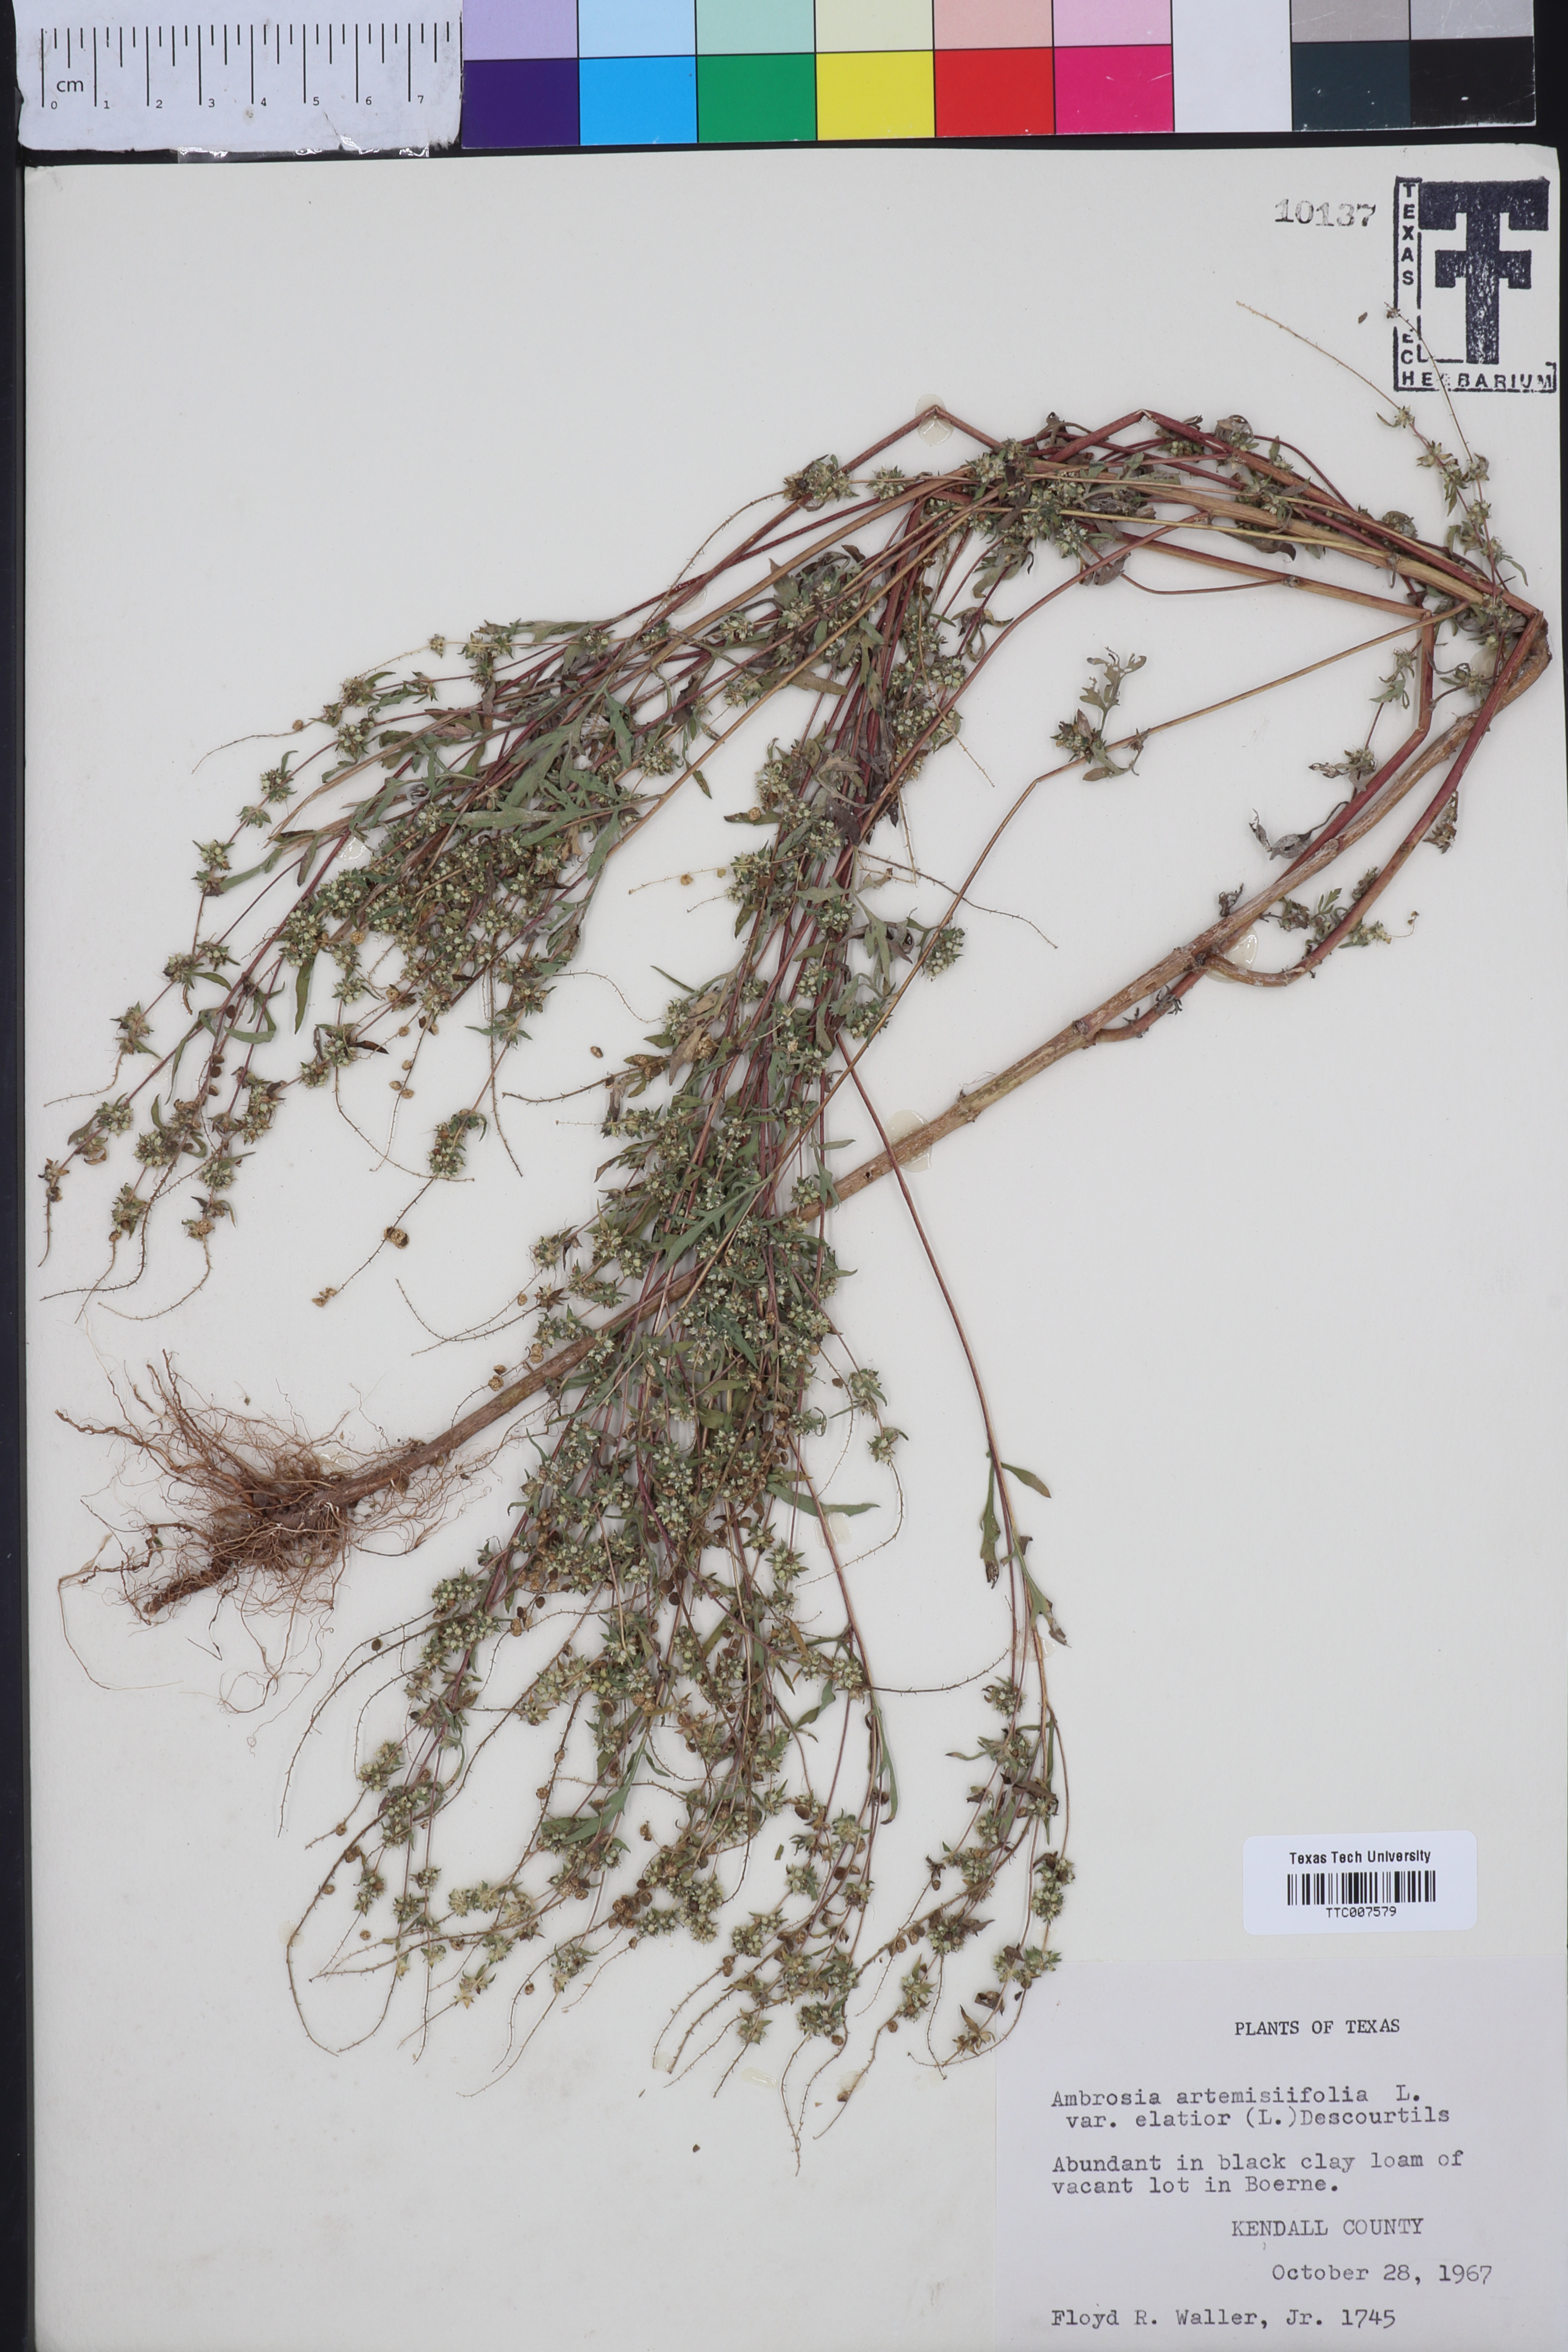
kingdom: Plantae
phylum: Tracheophyta
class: Magnoliopsida
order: Asterales
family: Asteraceae
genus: Ambrosia
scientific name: Ambrosia artemisiifolia
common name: Annual ragweed
